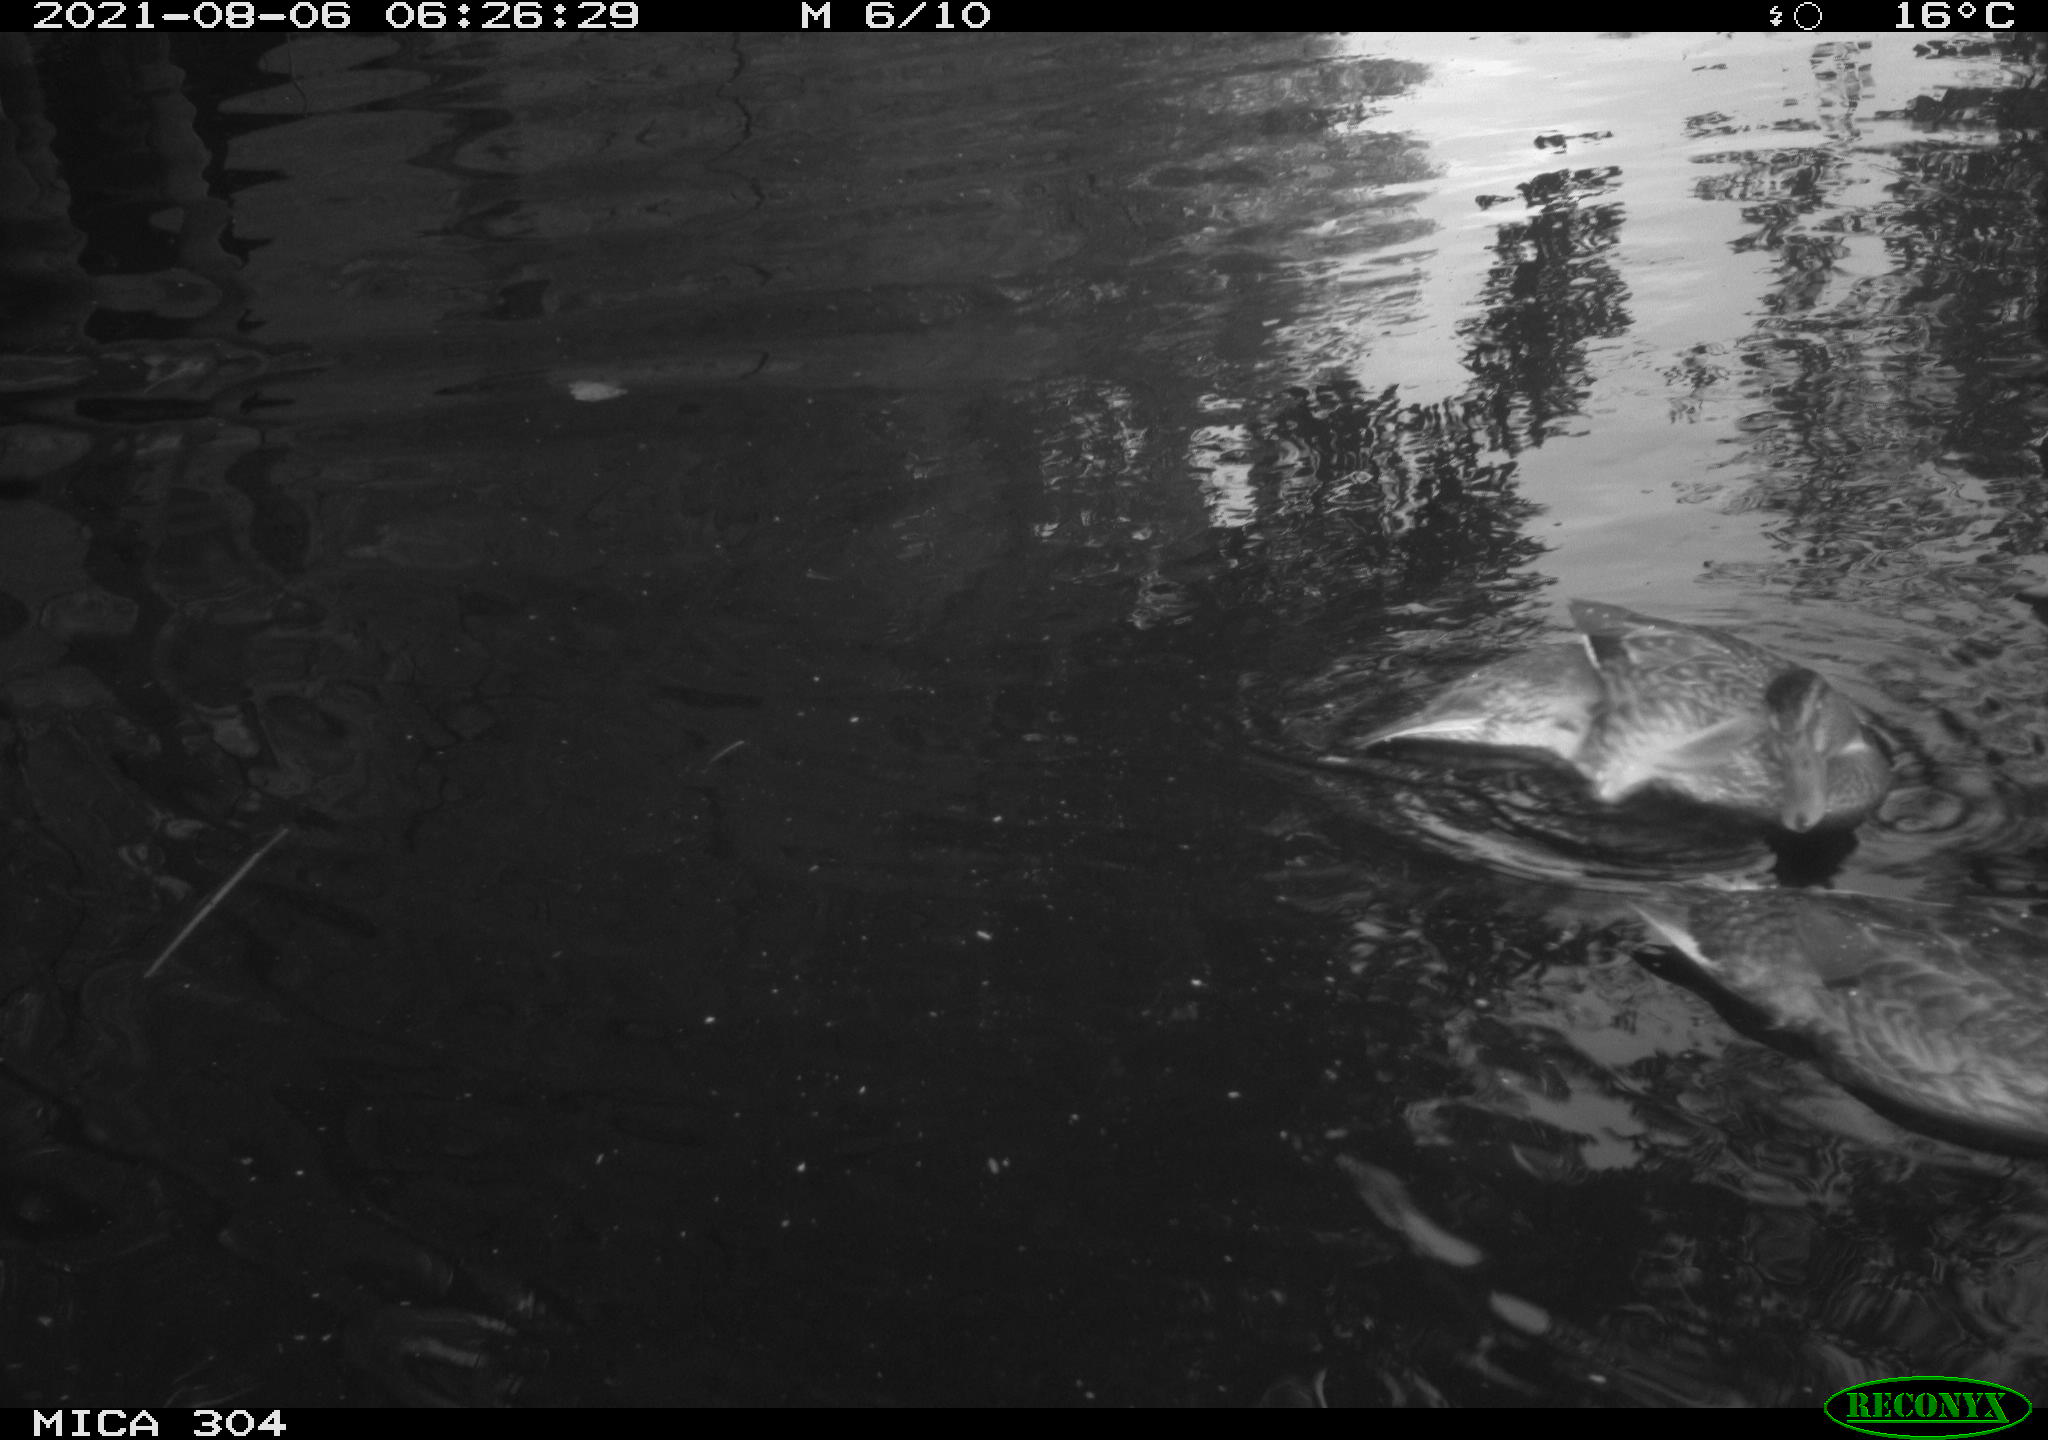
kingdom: Animalia
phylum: Chordata
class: Aves
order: Anseriformes
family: Anatidae
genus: Anas
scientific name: Anas platyrhynchos
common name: Mallard
